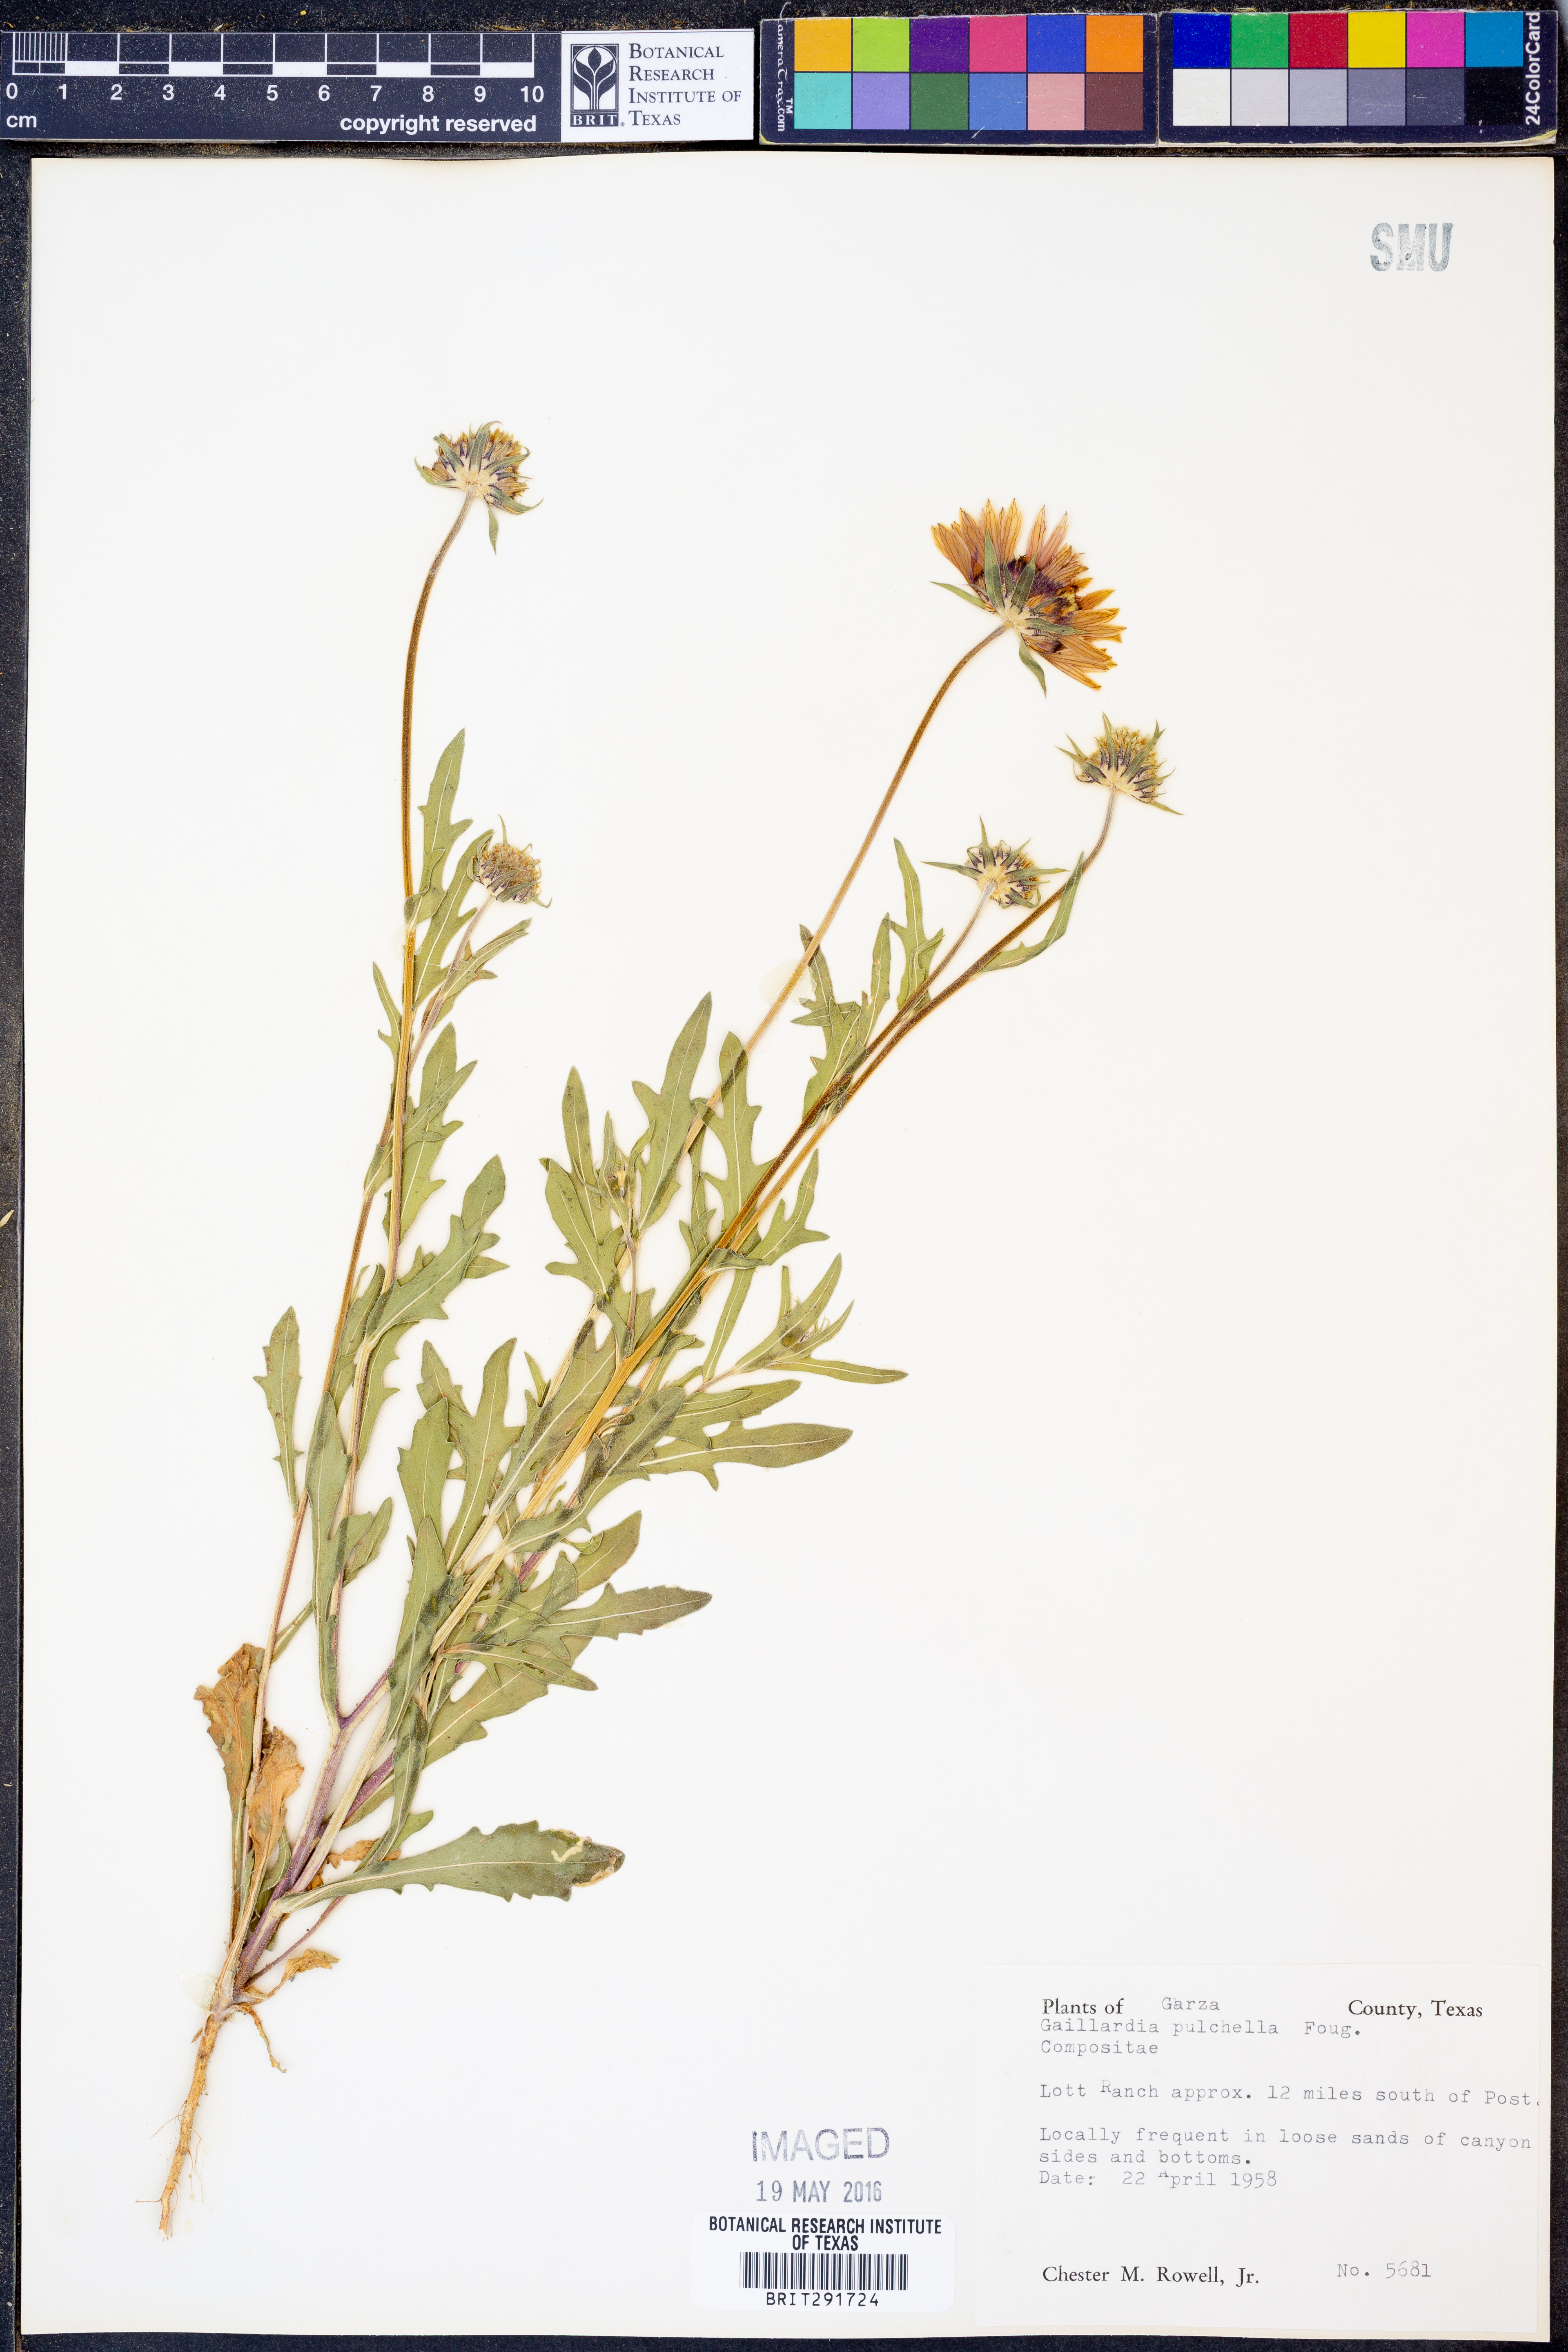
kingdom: Plantae
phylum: Tracheophyta
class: Magnoliopsida
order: Asterales
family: Asteraceae
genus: Gaillardia
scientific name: Gaillardia pulchella
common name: Firewheel
